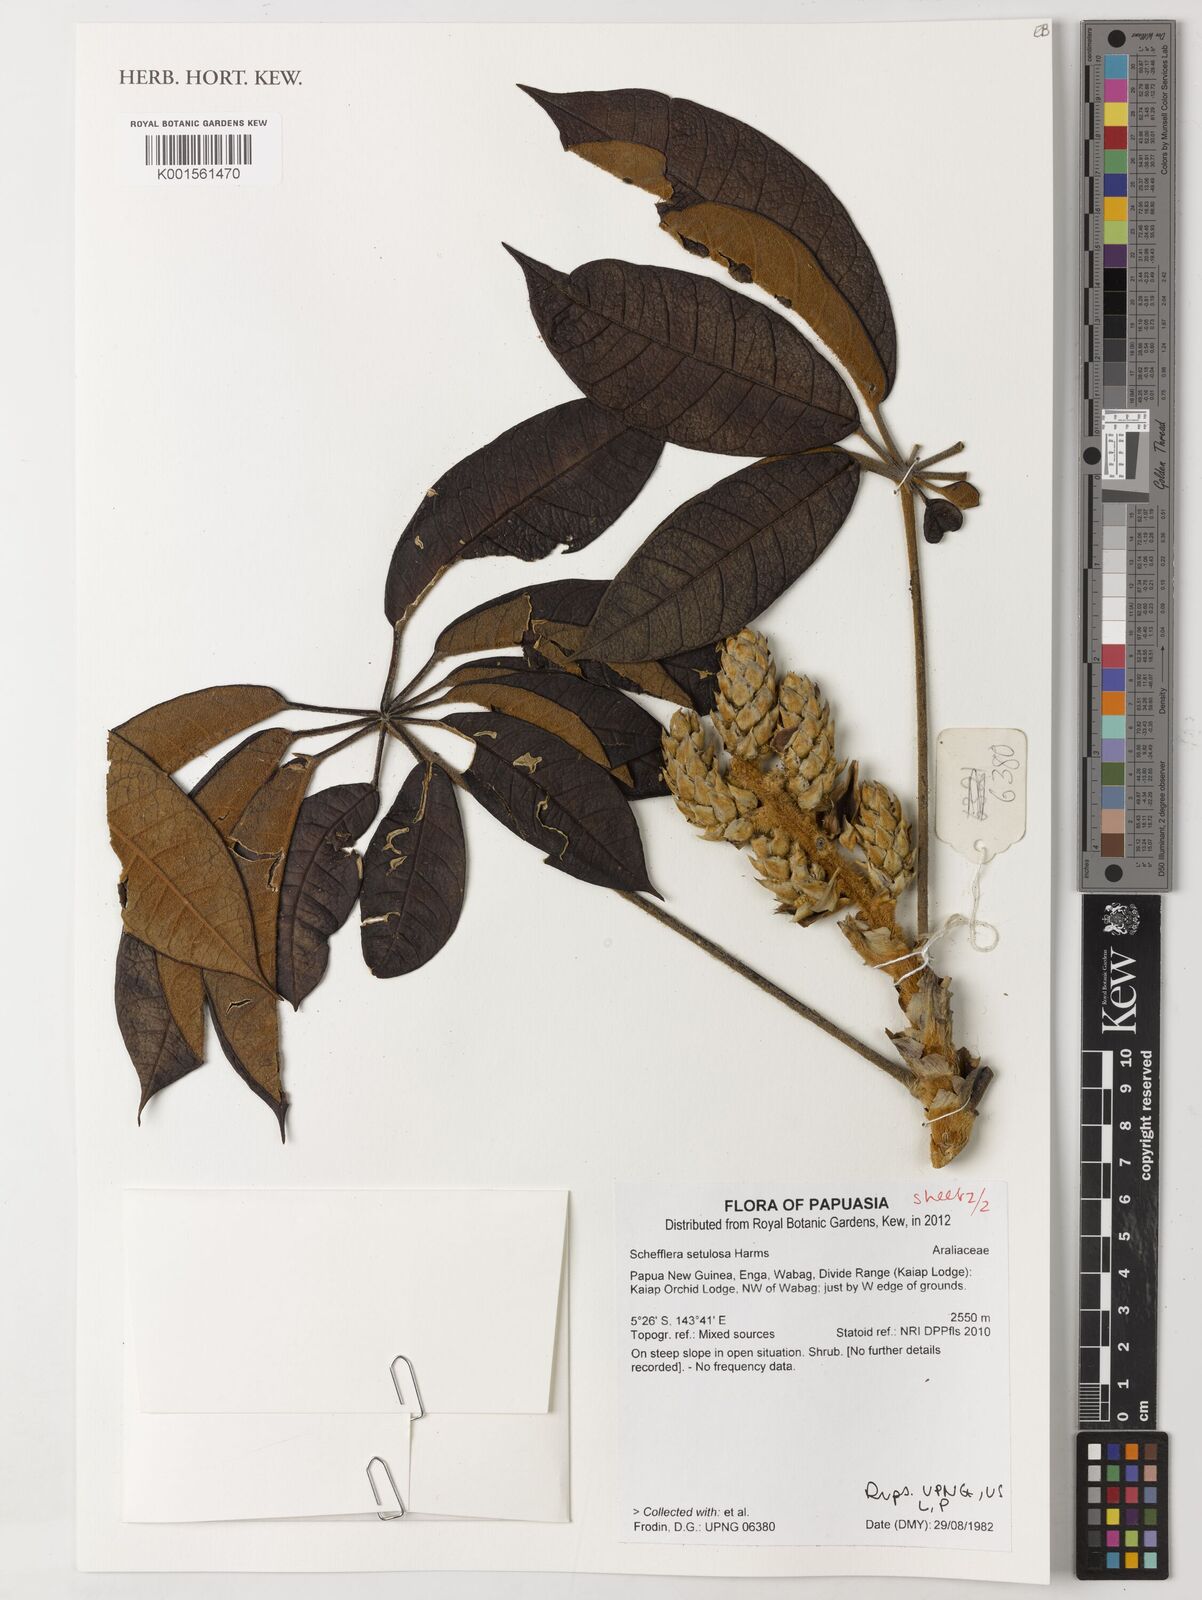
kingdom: Plantae
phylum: Tracheophyta
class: Magnoliopsida
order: Apiales
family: Araliaceae
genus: Heptapleurum
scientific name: Heptapleurum setulosum
